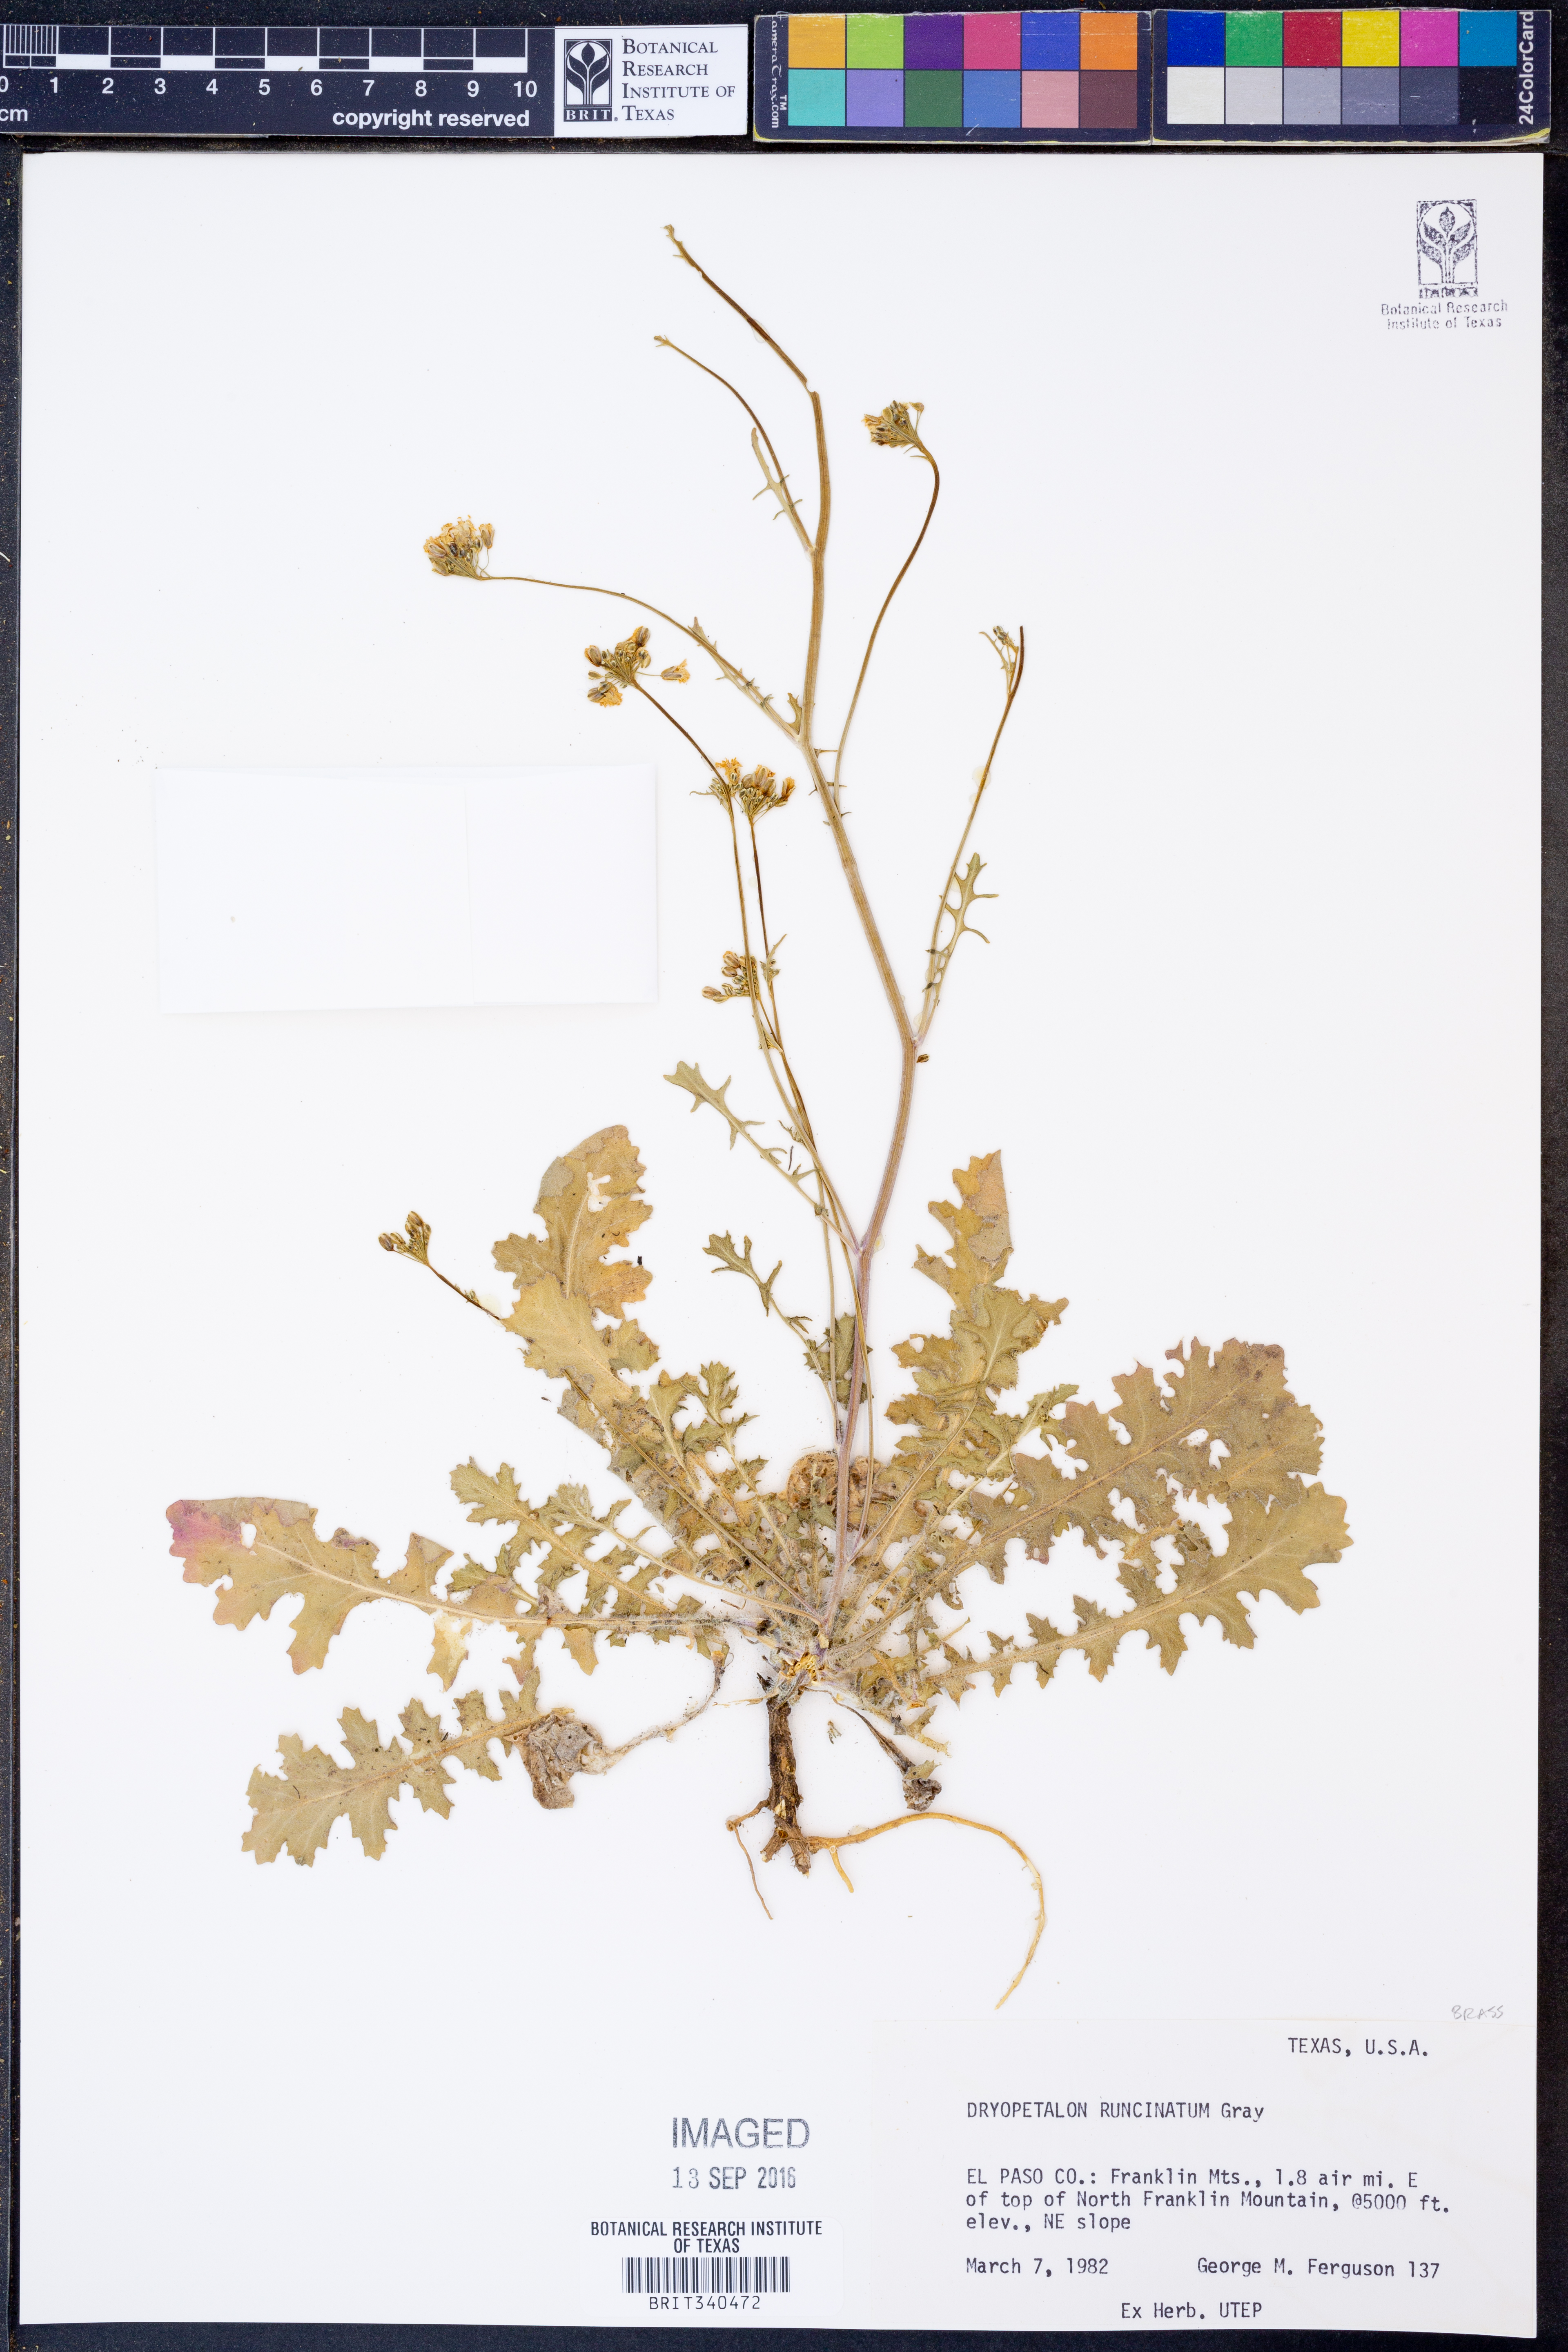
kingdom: Plantae
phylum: Tracheophyta
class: Magnoliopsida
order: Brassicales
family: Brassicaceae
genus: Dryopetalon
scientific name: Dryopetalon runcinatum
